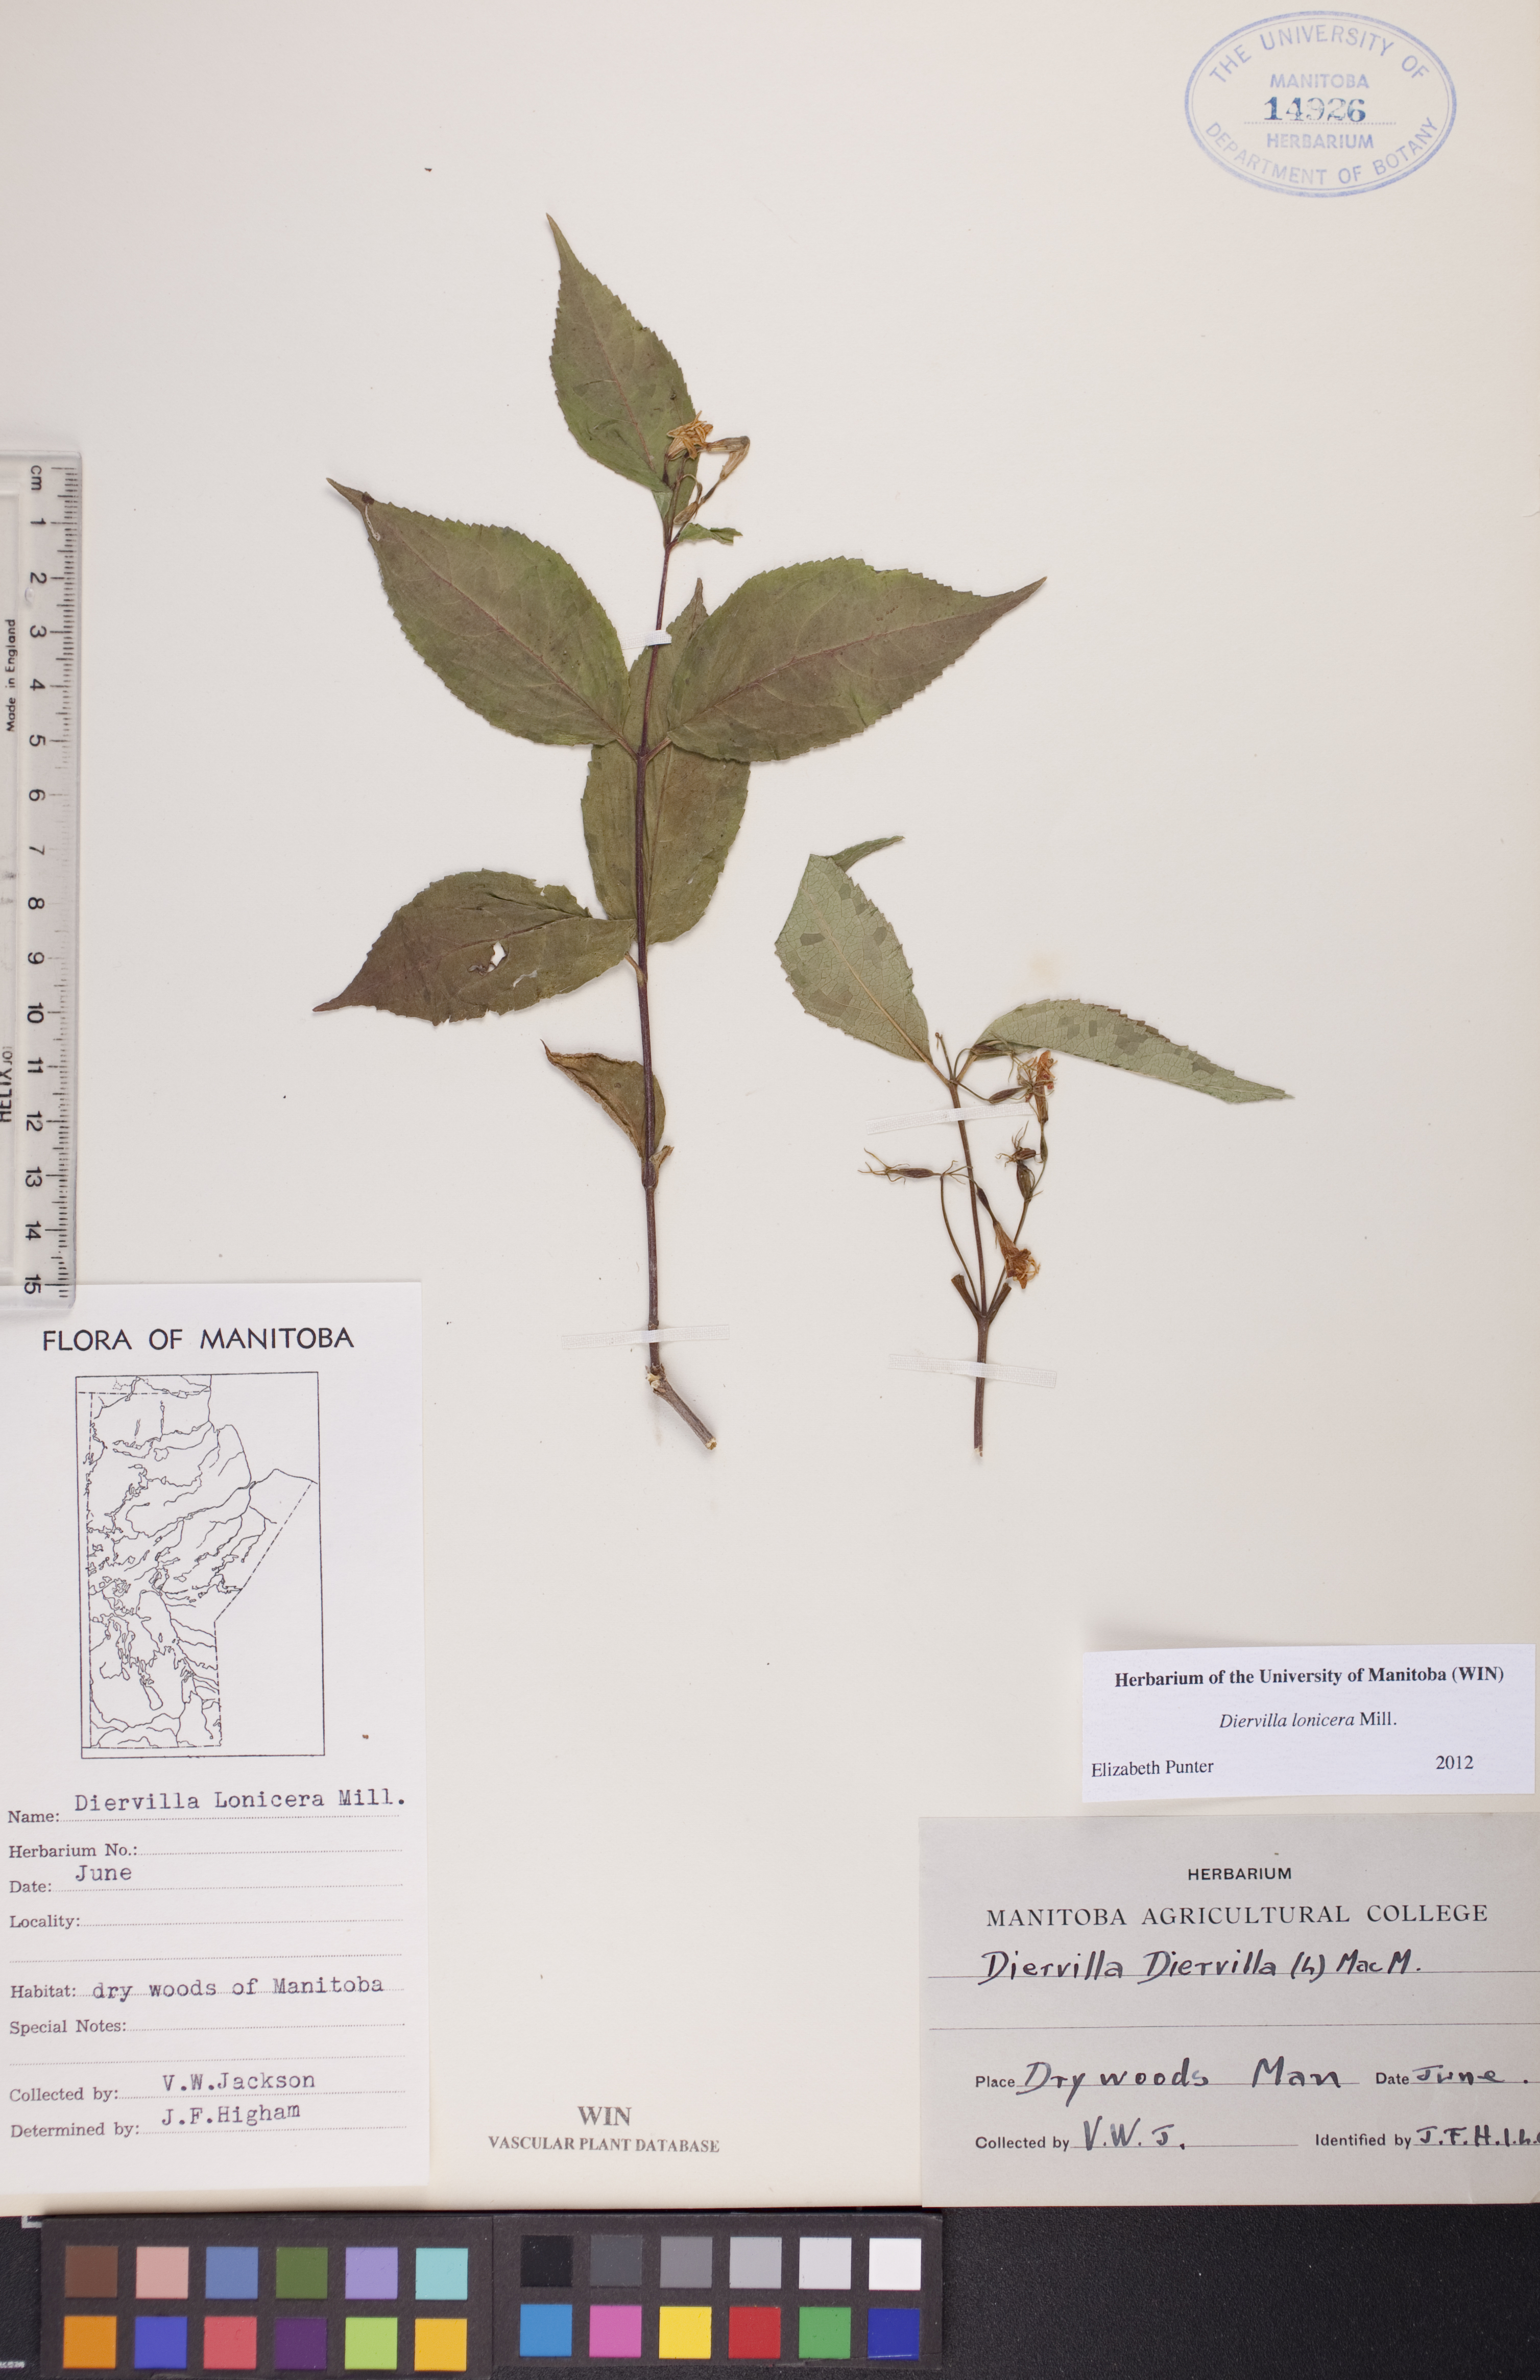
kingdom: Plantae
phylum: Tracheophyta
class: Magnoliopsida
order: Dipsacales
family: Caprifoliaceae
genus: Diervilla
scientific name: Diervilla lonicera
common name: Bush-honeysuckle
